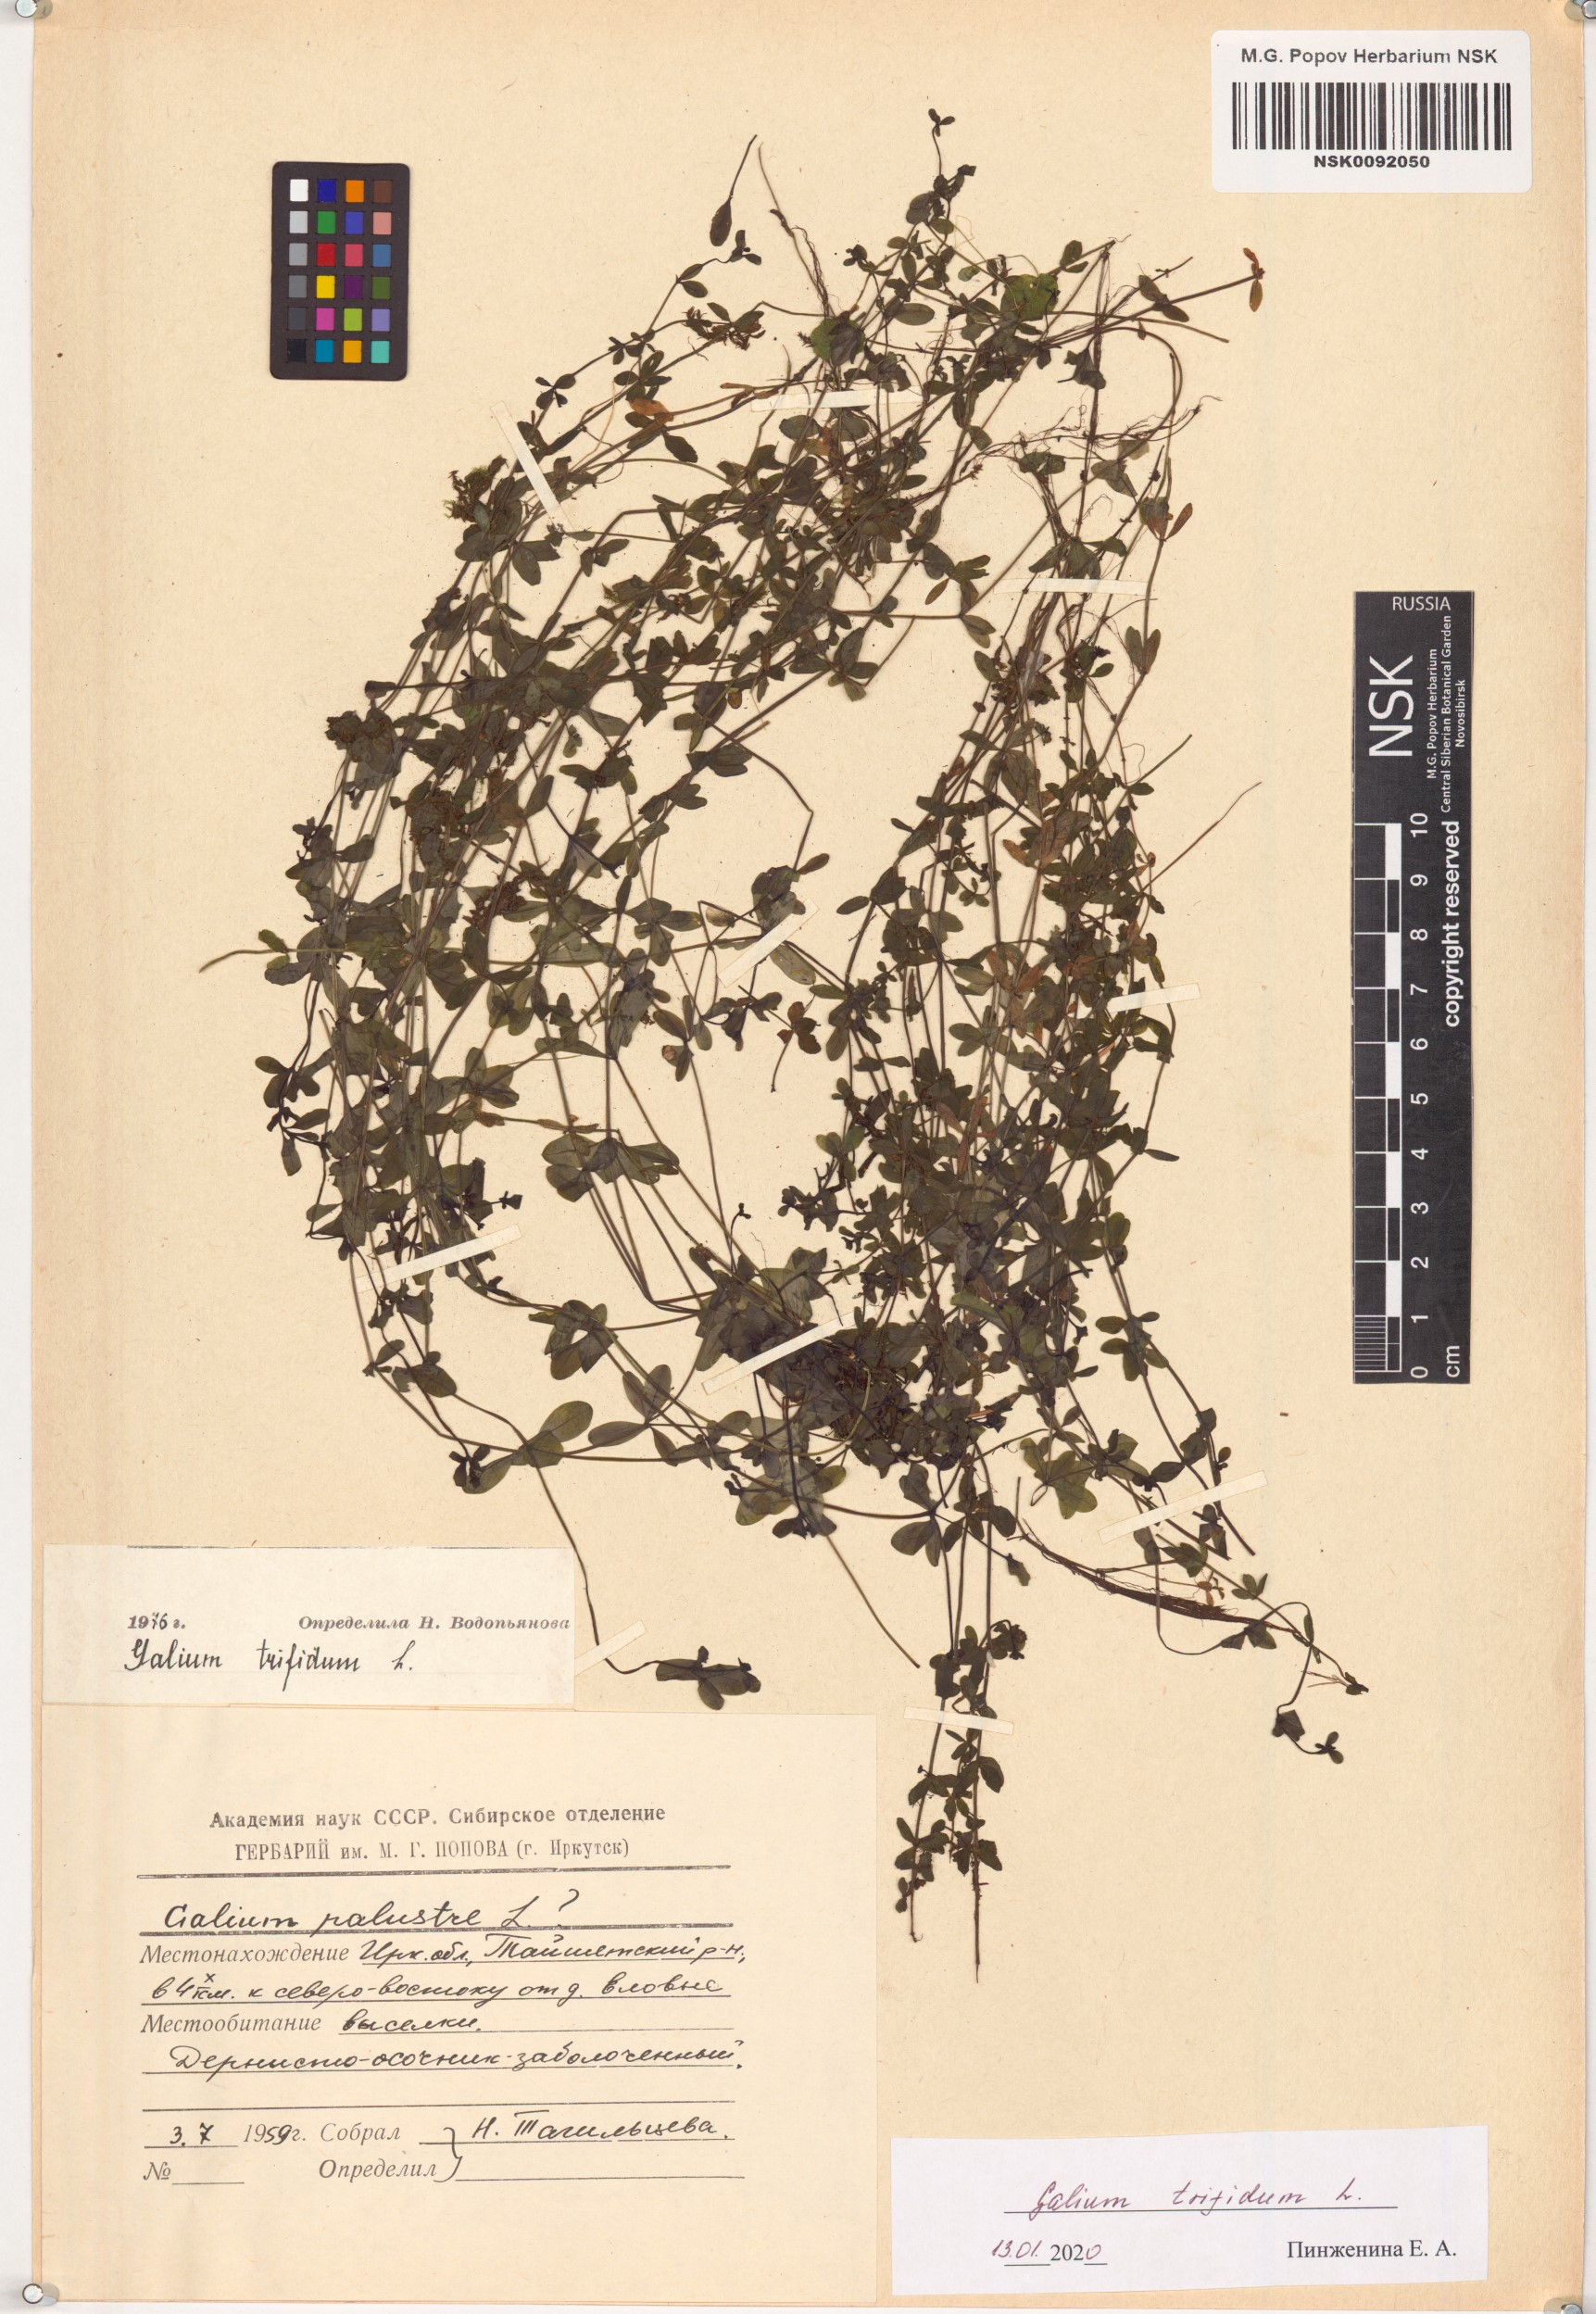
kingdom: Plantae
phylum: Tracheophyta
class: Magnoliopsida
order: Gentianales
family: Rubiaceae
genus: Galium
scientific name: Galium trifidum
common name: Small bedstraw
